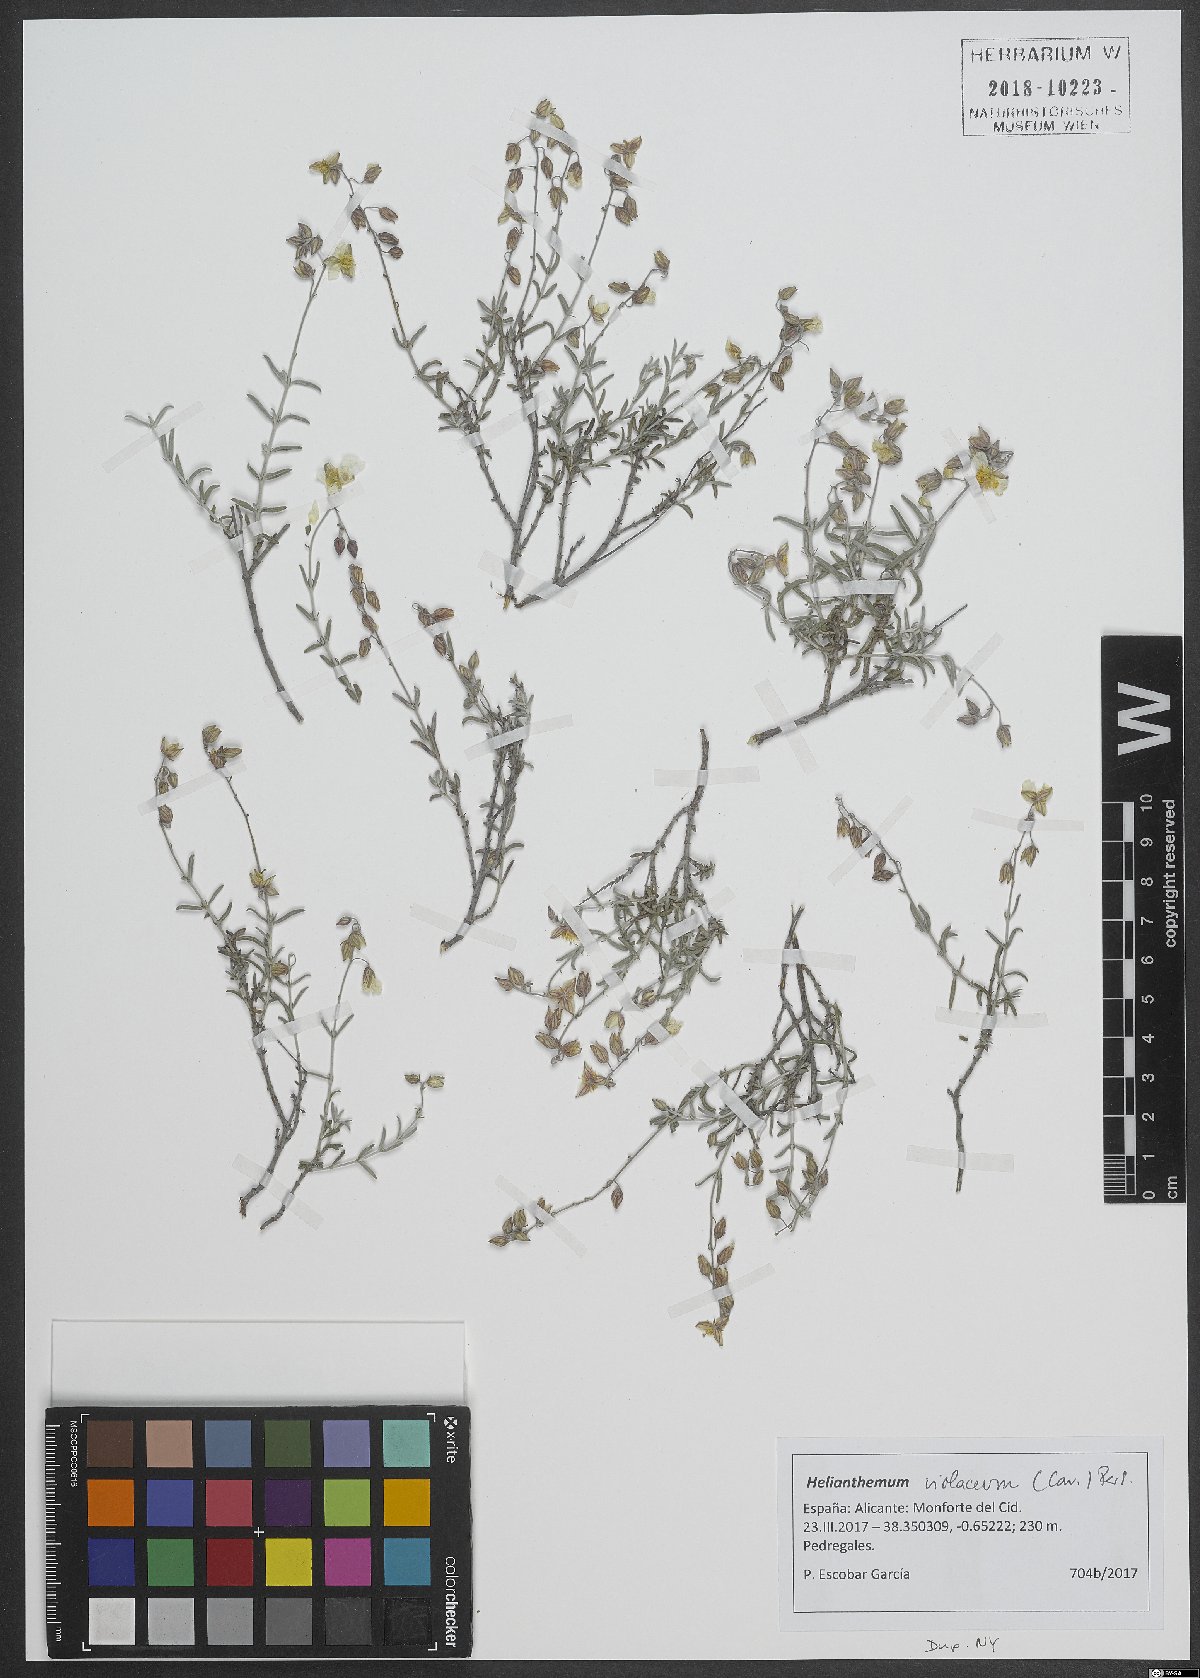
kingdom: Plantae
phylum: Tracheophyta
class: Magnoliopsida
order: Malvales
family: Cistaceae
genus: Helianthemum
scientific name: Helianthemum violaceum
